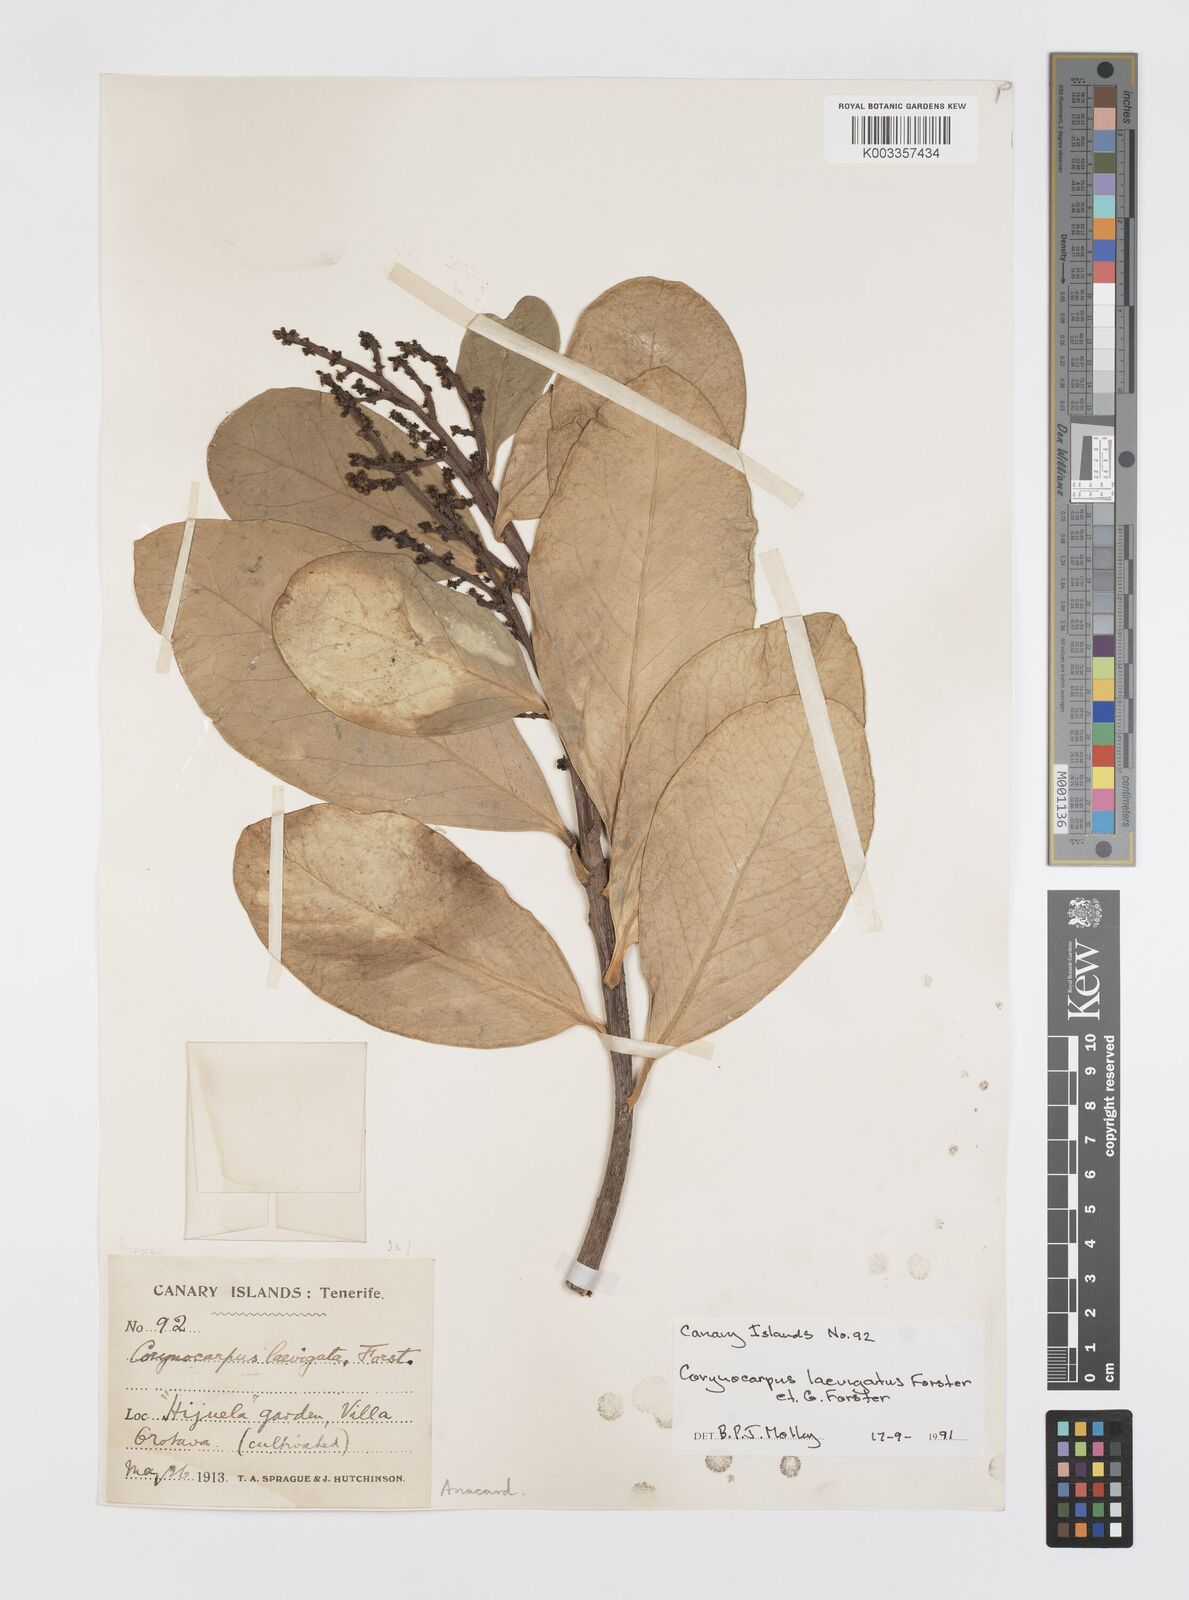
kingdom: Plantae
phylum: Tracheophyta
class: Magnoliopsida
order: Cucurbitales
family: Corynocarpaceae
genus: Corynocarpus
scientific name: Corynocarpus laevigatus
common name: New zealand laurel
